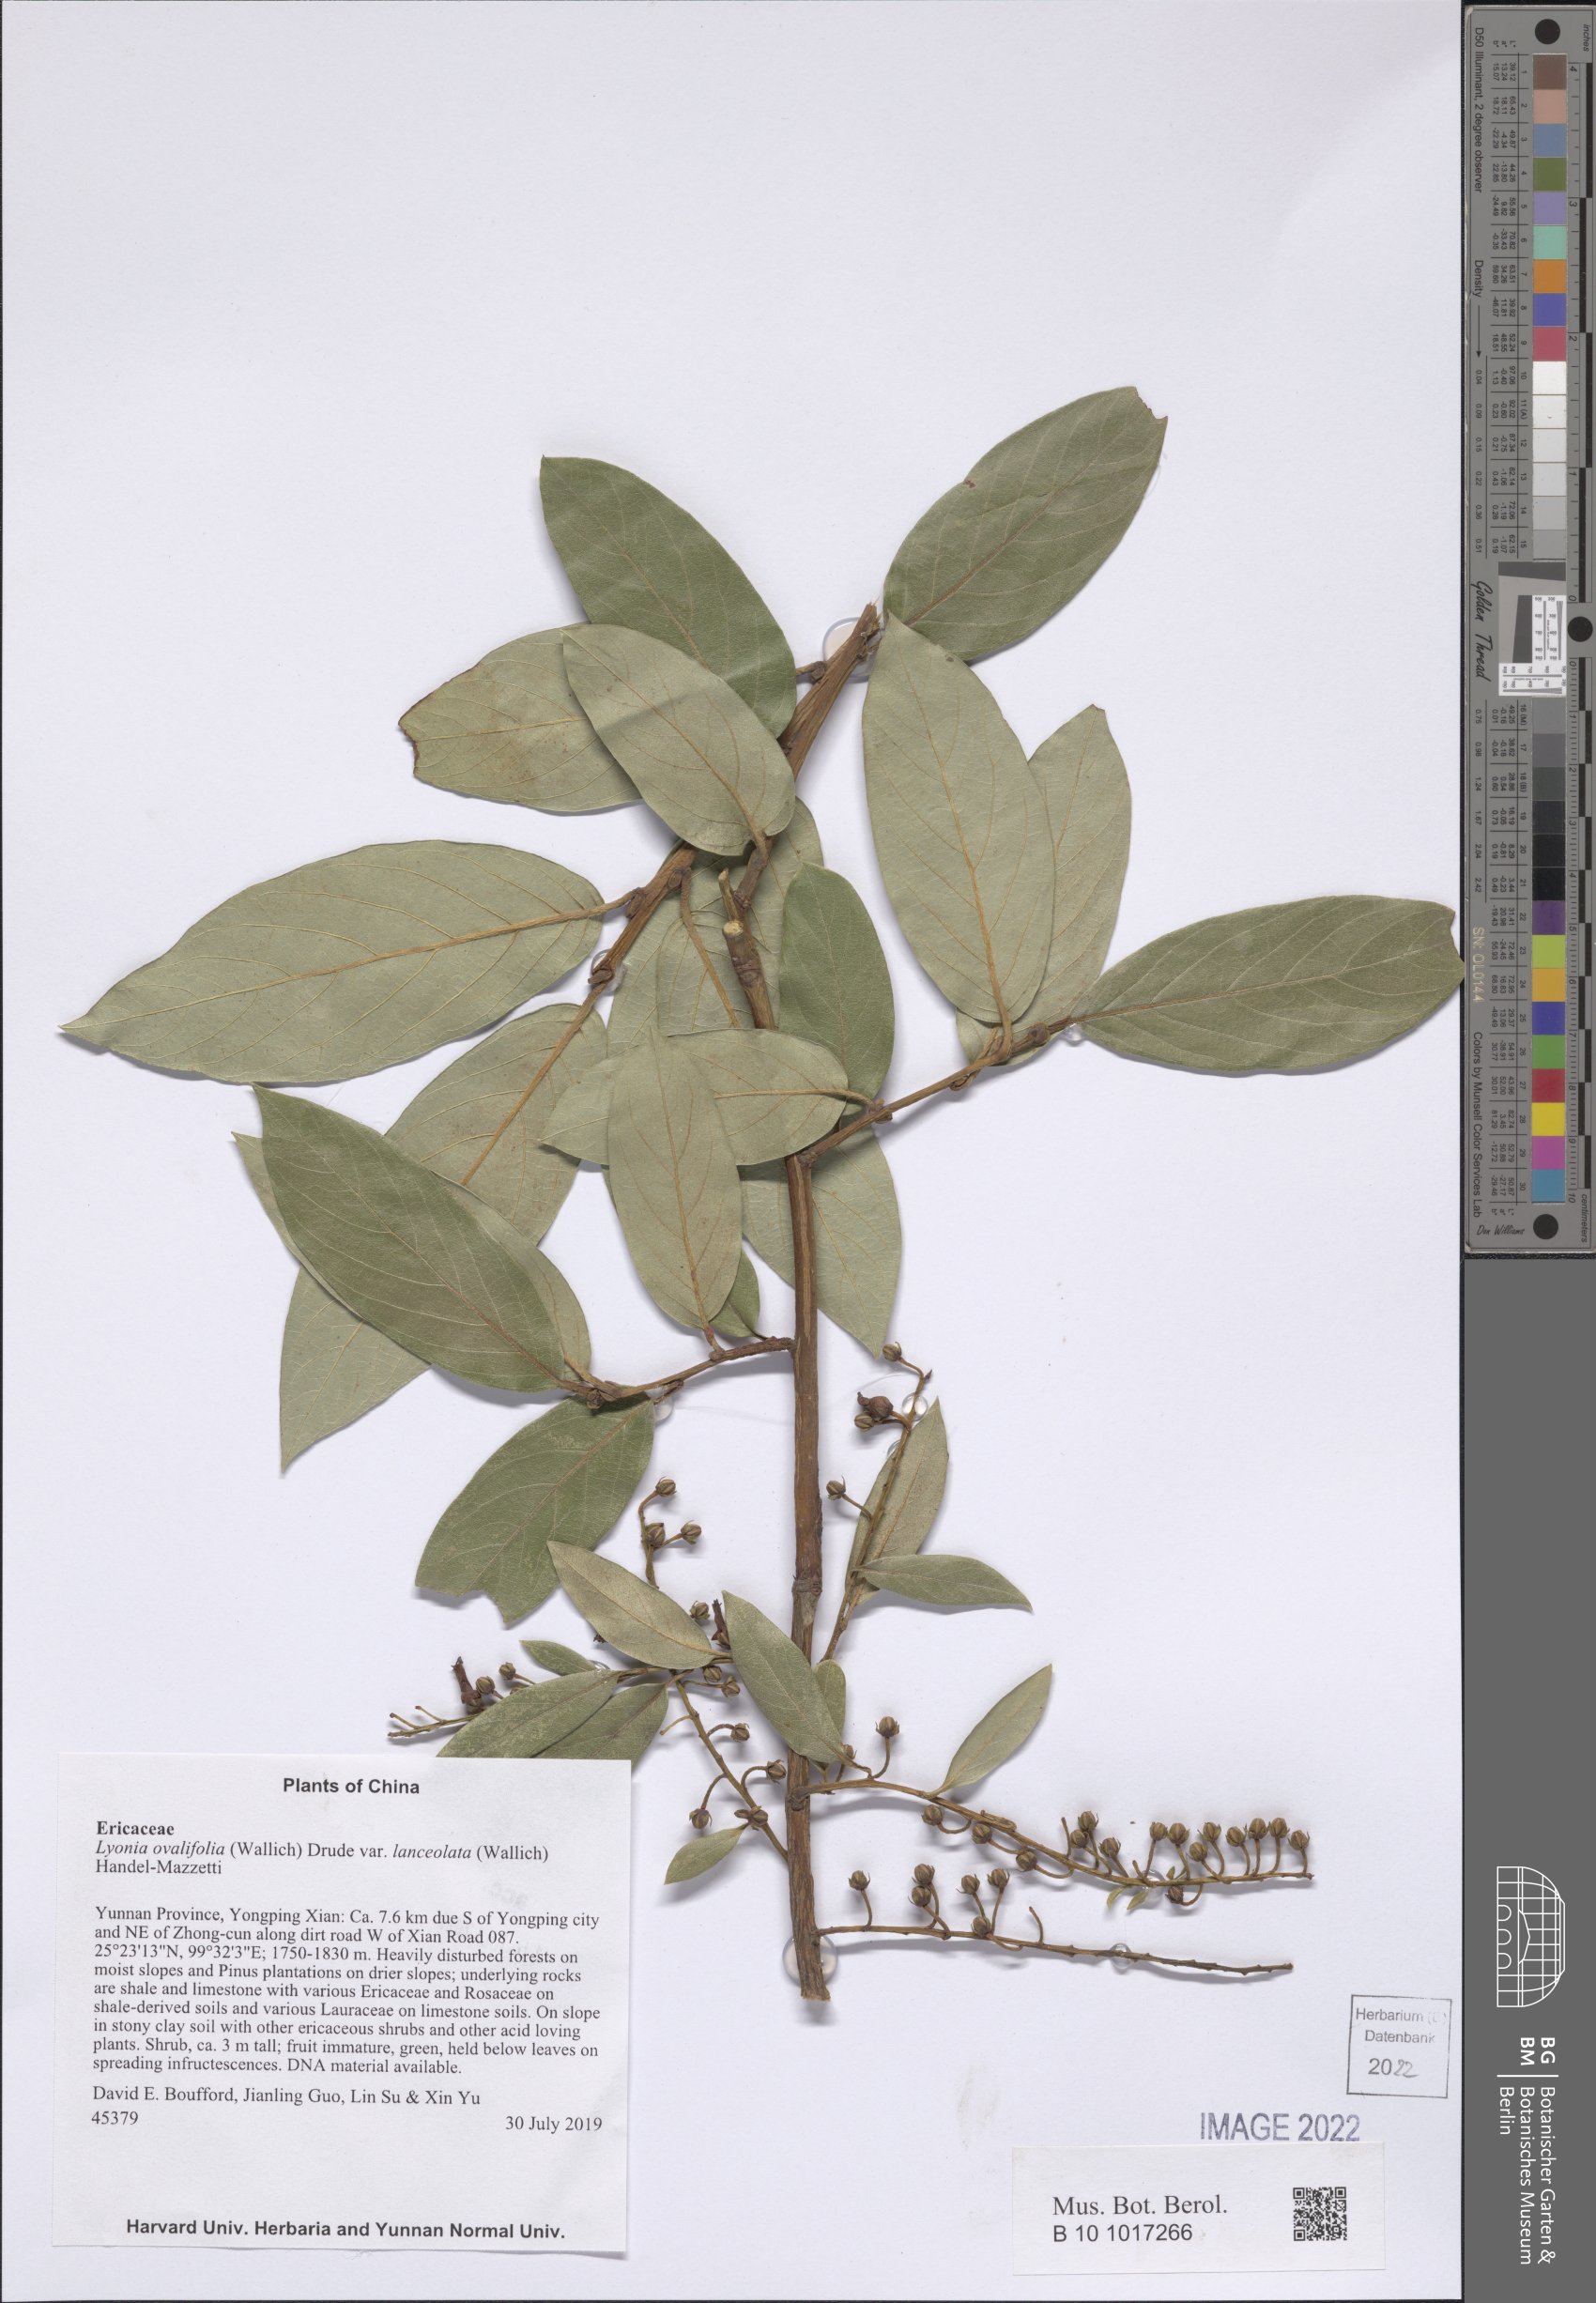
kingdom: Plantae
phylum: Tracheophyta
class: Magnoliopsida
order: Ericales
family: Ericaceae
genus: Lyonia
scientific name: Lyonia ovalifolia
